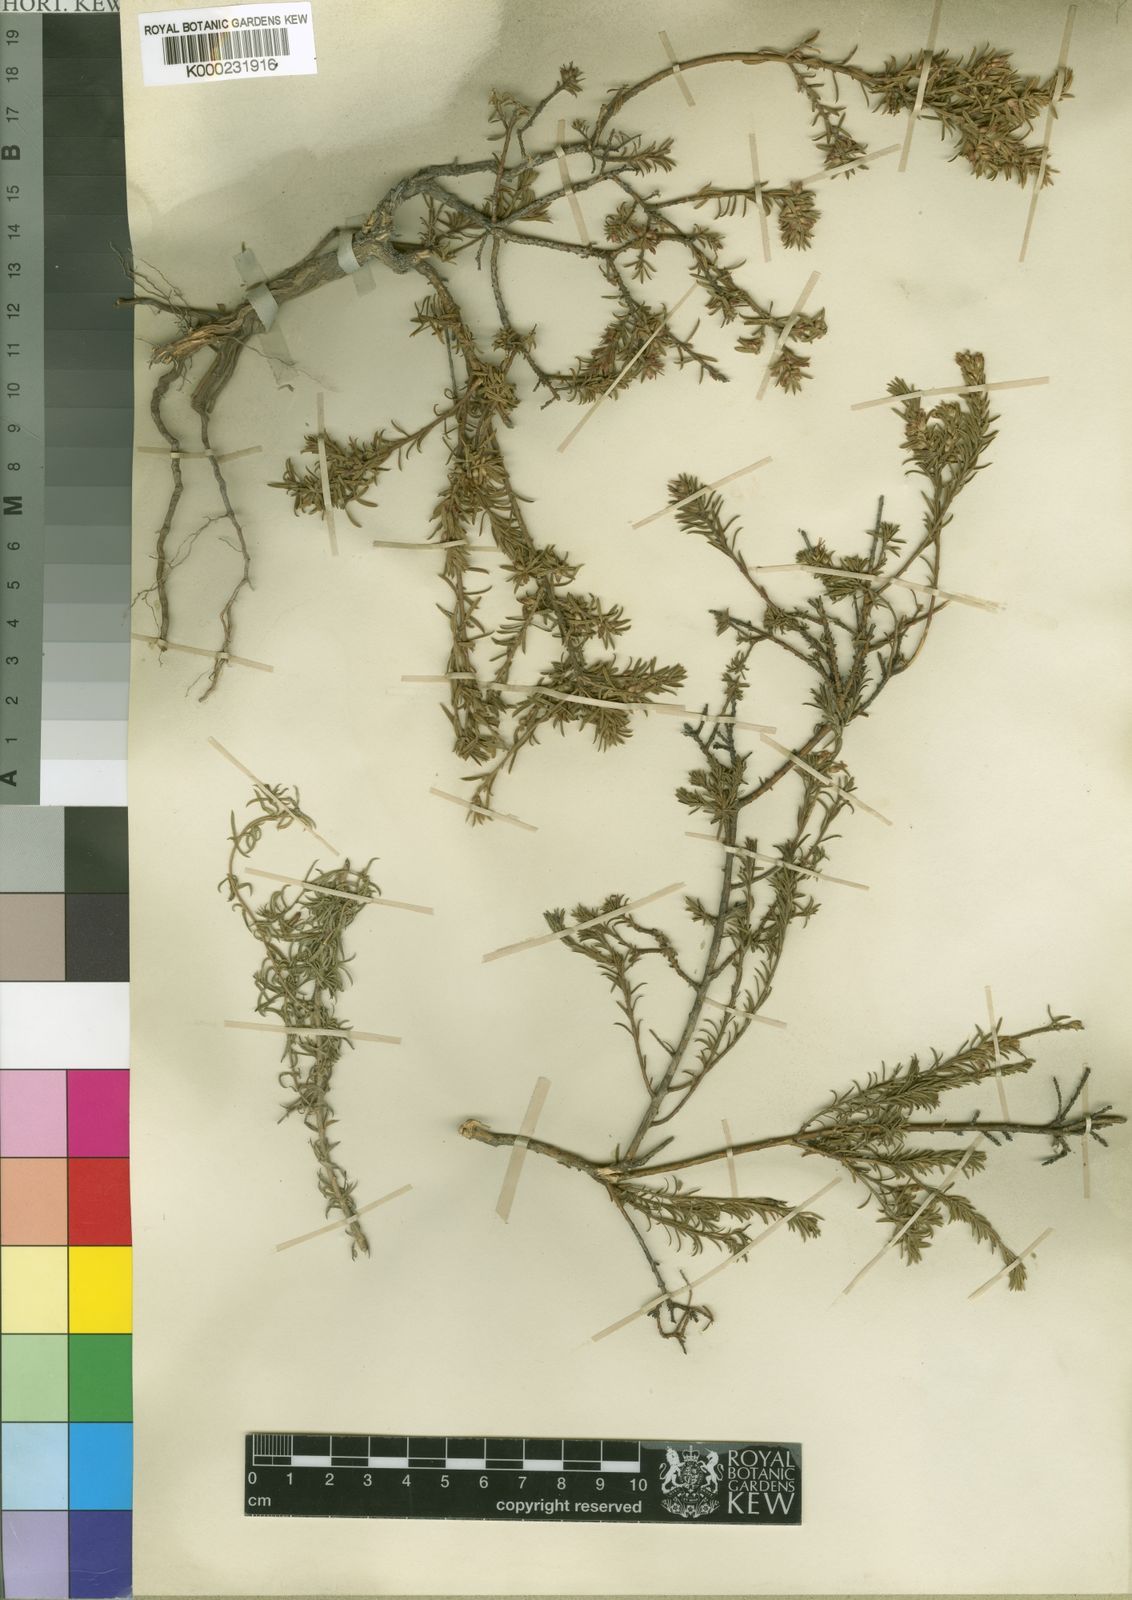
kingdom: Plantae
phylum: Tracheophyta
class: Magnoliopsida
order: Fabales
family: Polygalaceae
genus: Muraltia
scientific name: Muraltia empleuridioides
